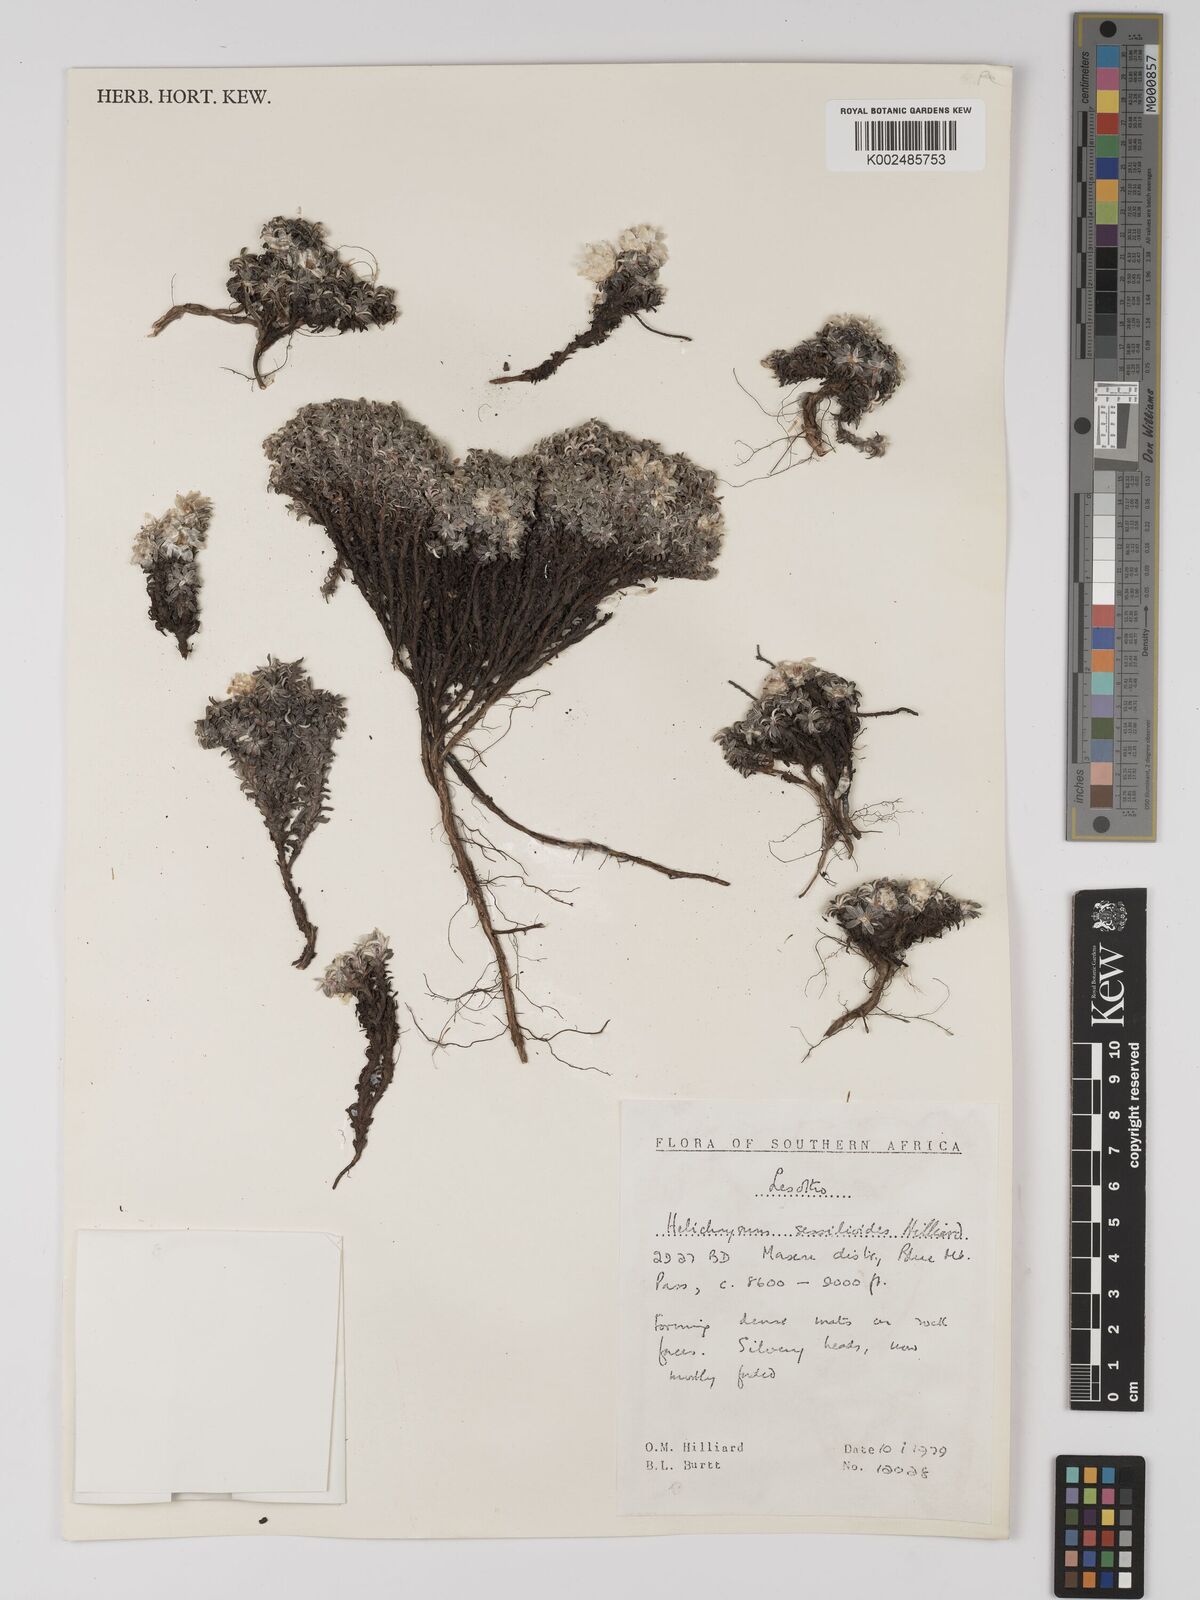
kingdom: Plantae
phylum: Tracheophyta
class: Magnoliopsida
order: Asterales
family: Asteraceae
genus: Helichrysum
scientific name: Helichrysum sessilioides
